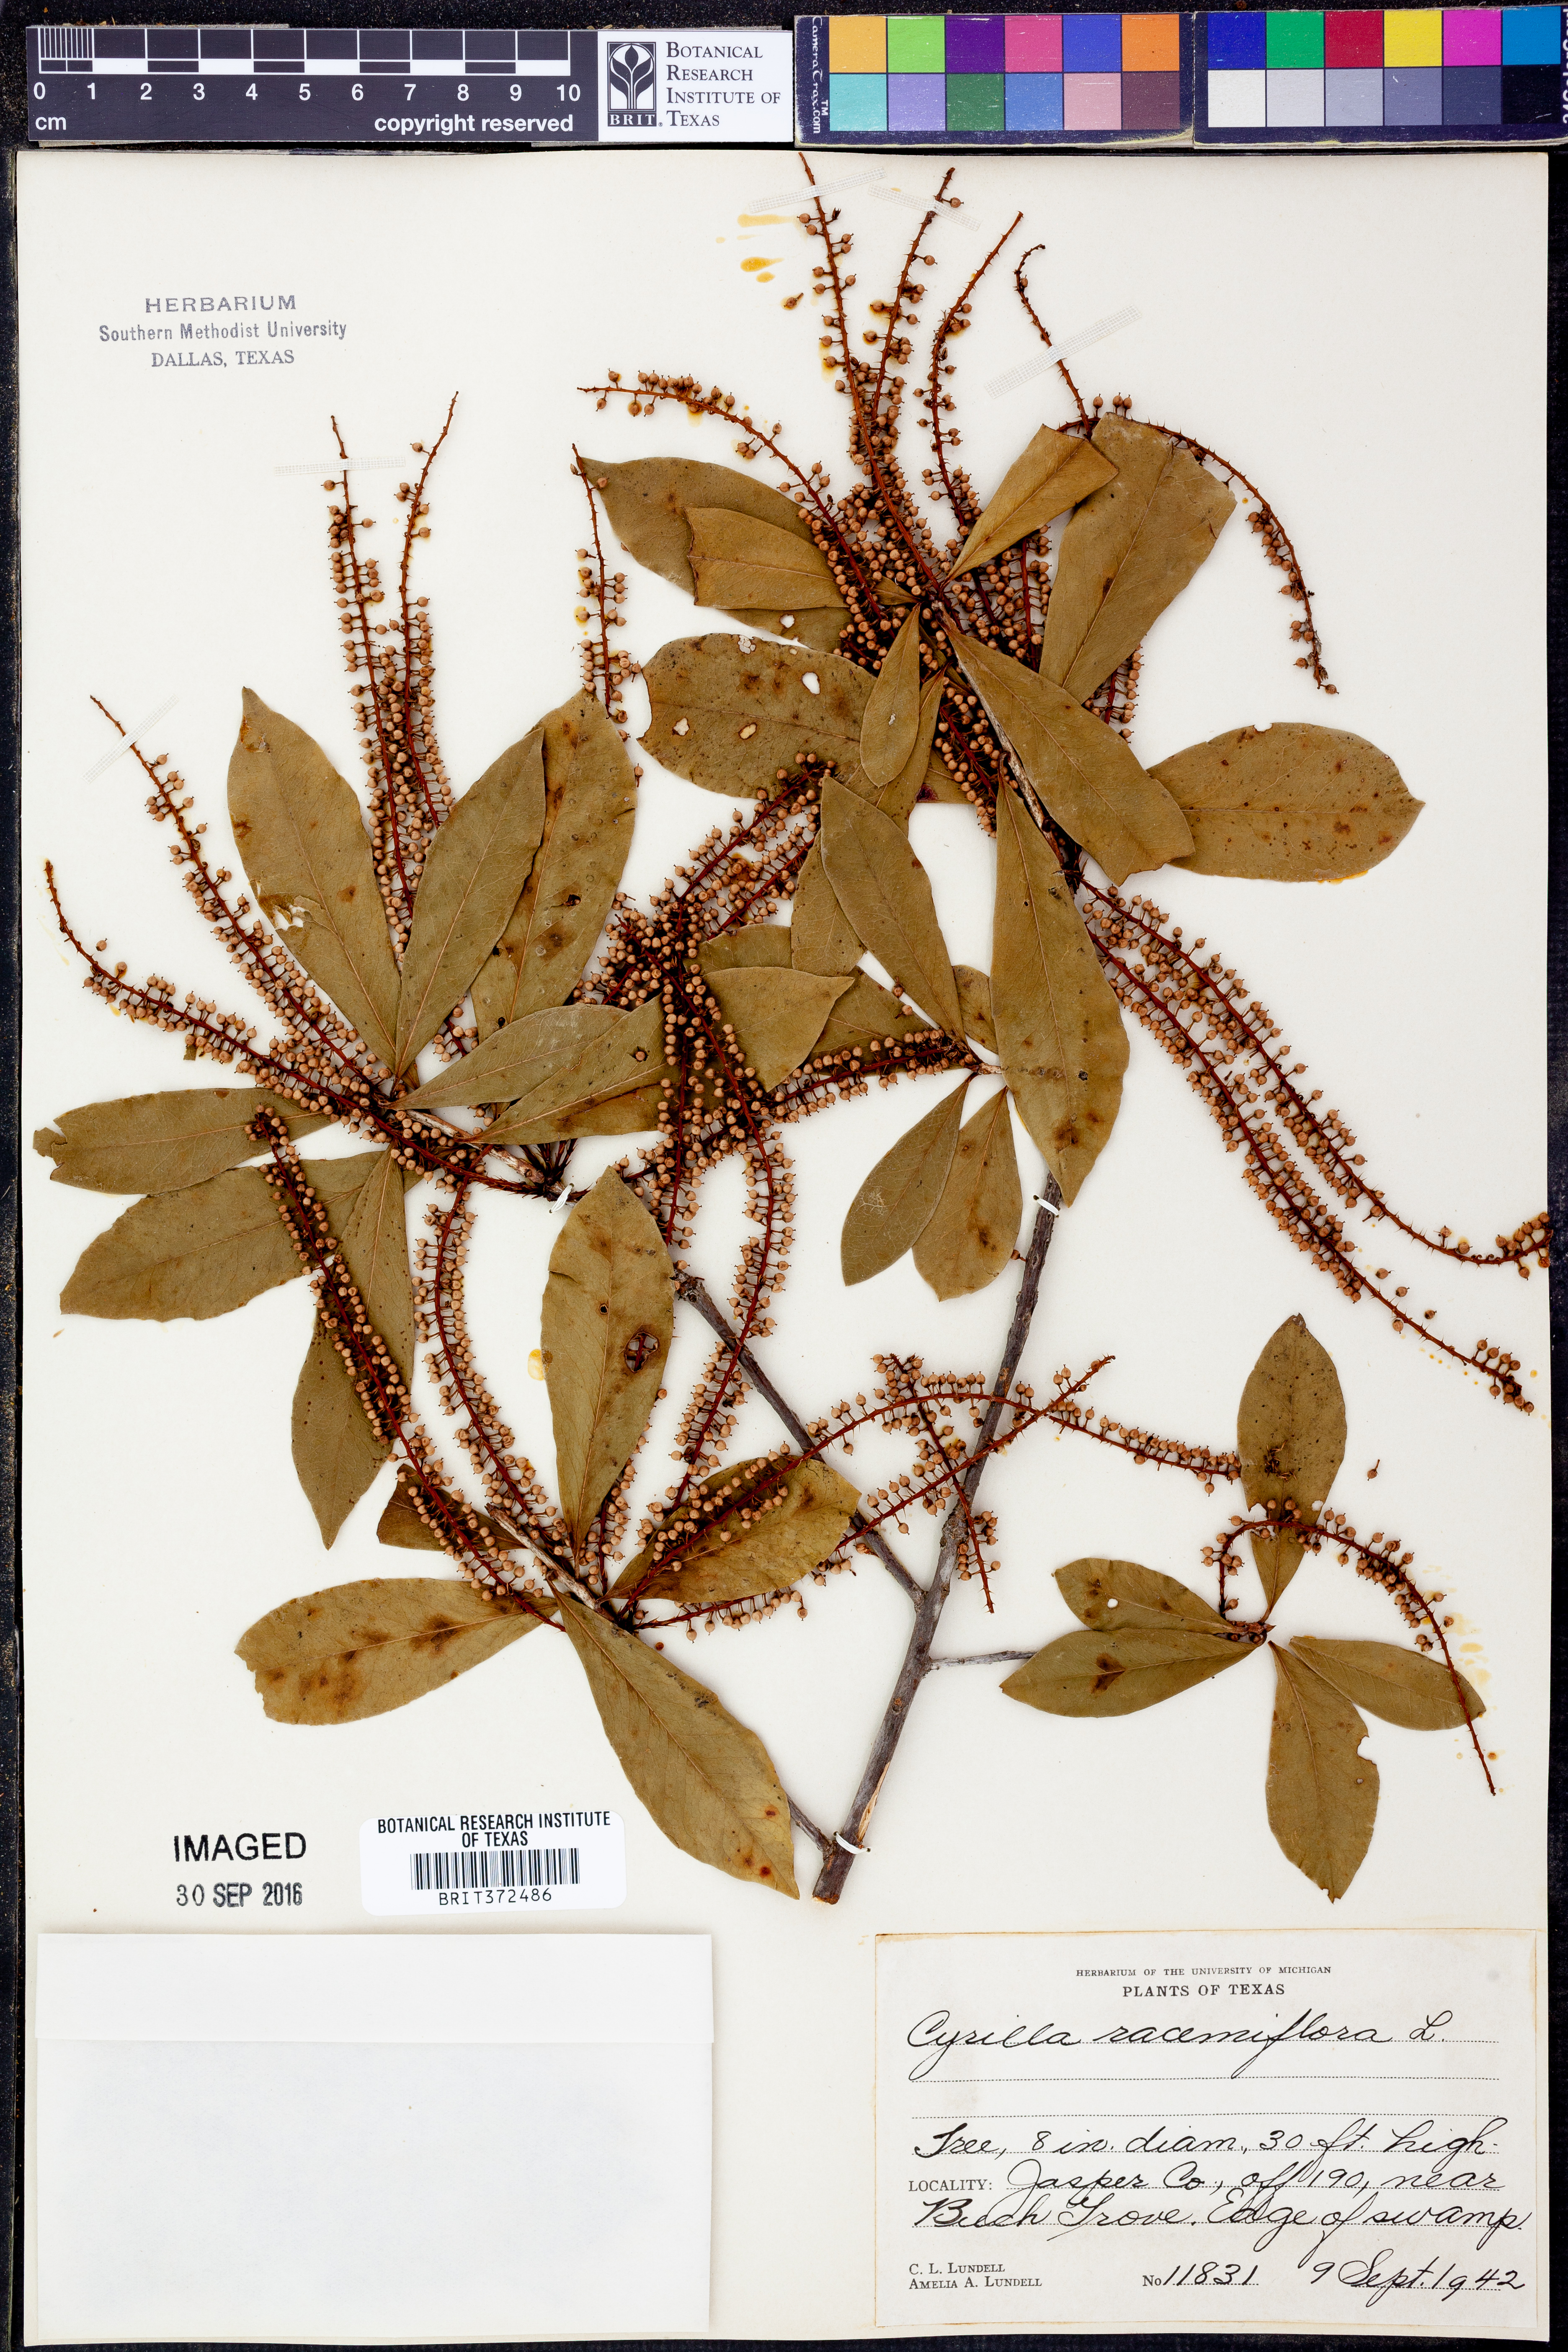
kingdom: Plantae
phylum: Tracheophyta
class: Magnoliopsida
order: Ericales
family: Cyrillaceae
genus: Cyrilla
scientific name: Cyrilla racemiflora
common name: Black titi
